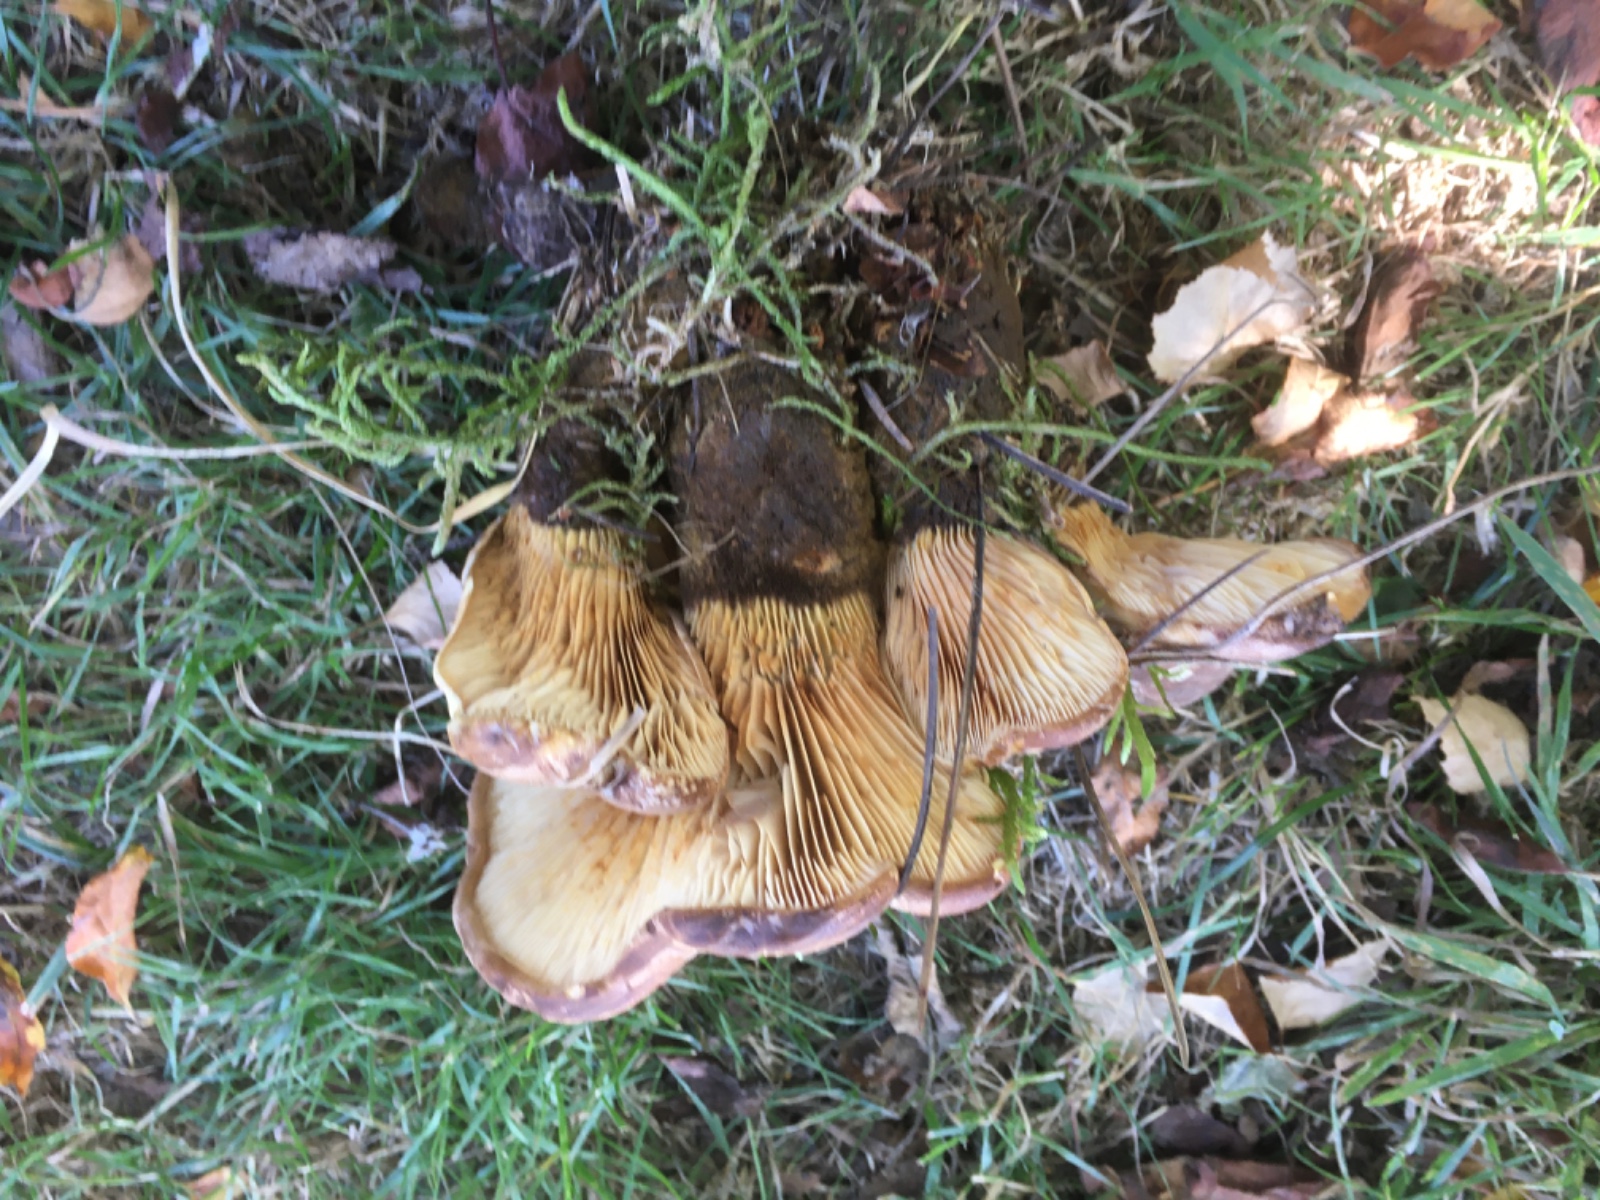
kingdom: Fungi
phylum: Basidiomycota
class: Agaricomycetes
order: Boletales
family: Tapinellaceae
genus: Tapinella
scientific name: Tapinella atrotomentosa
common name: sortfiltet viftesvamp
